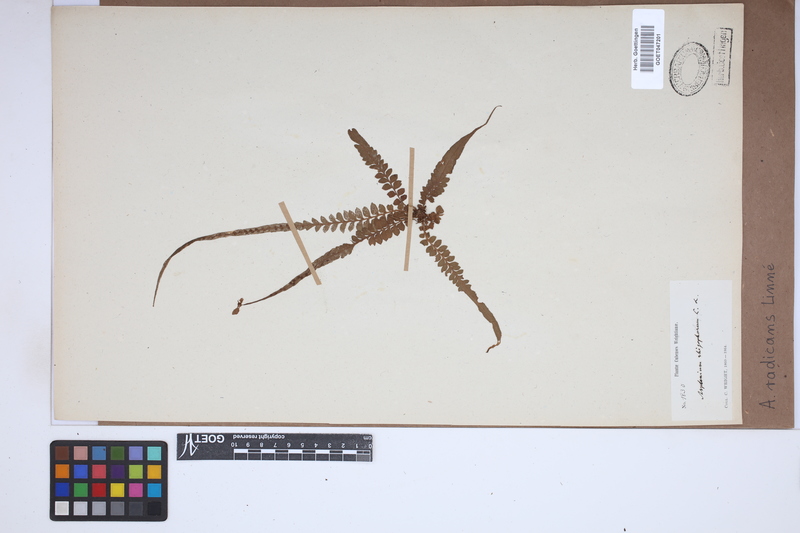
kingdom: Plantae
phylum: Tracheophyta
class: Polypodiopsida
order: Polypodiales
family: Aspleniaceae
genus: Asplenium
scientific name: Asplenium radicans
